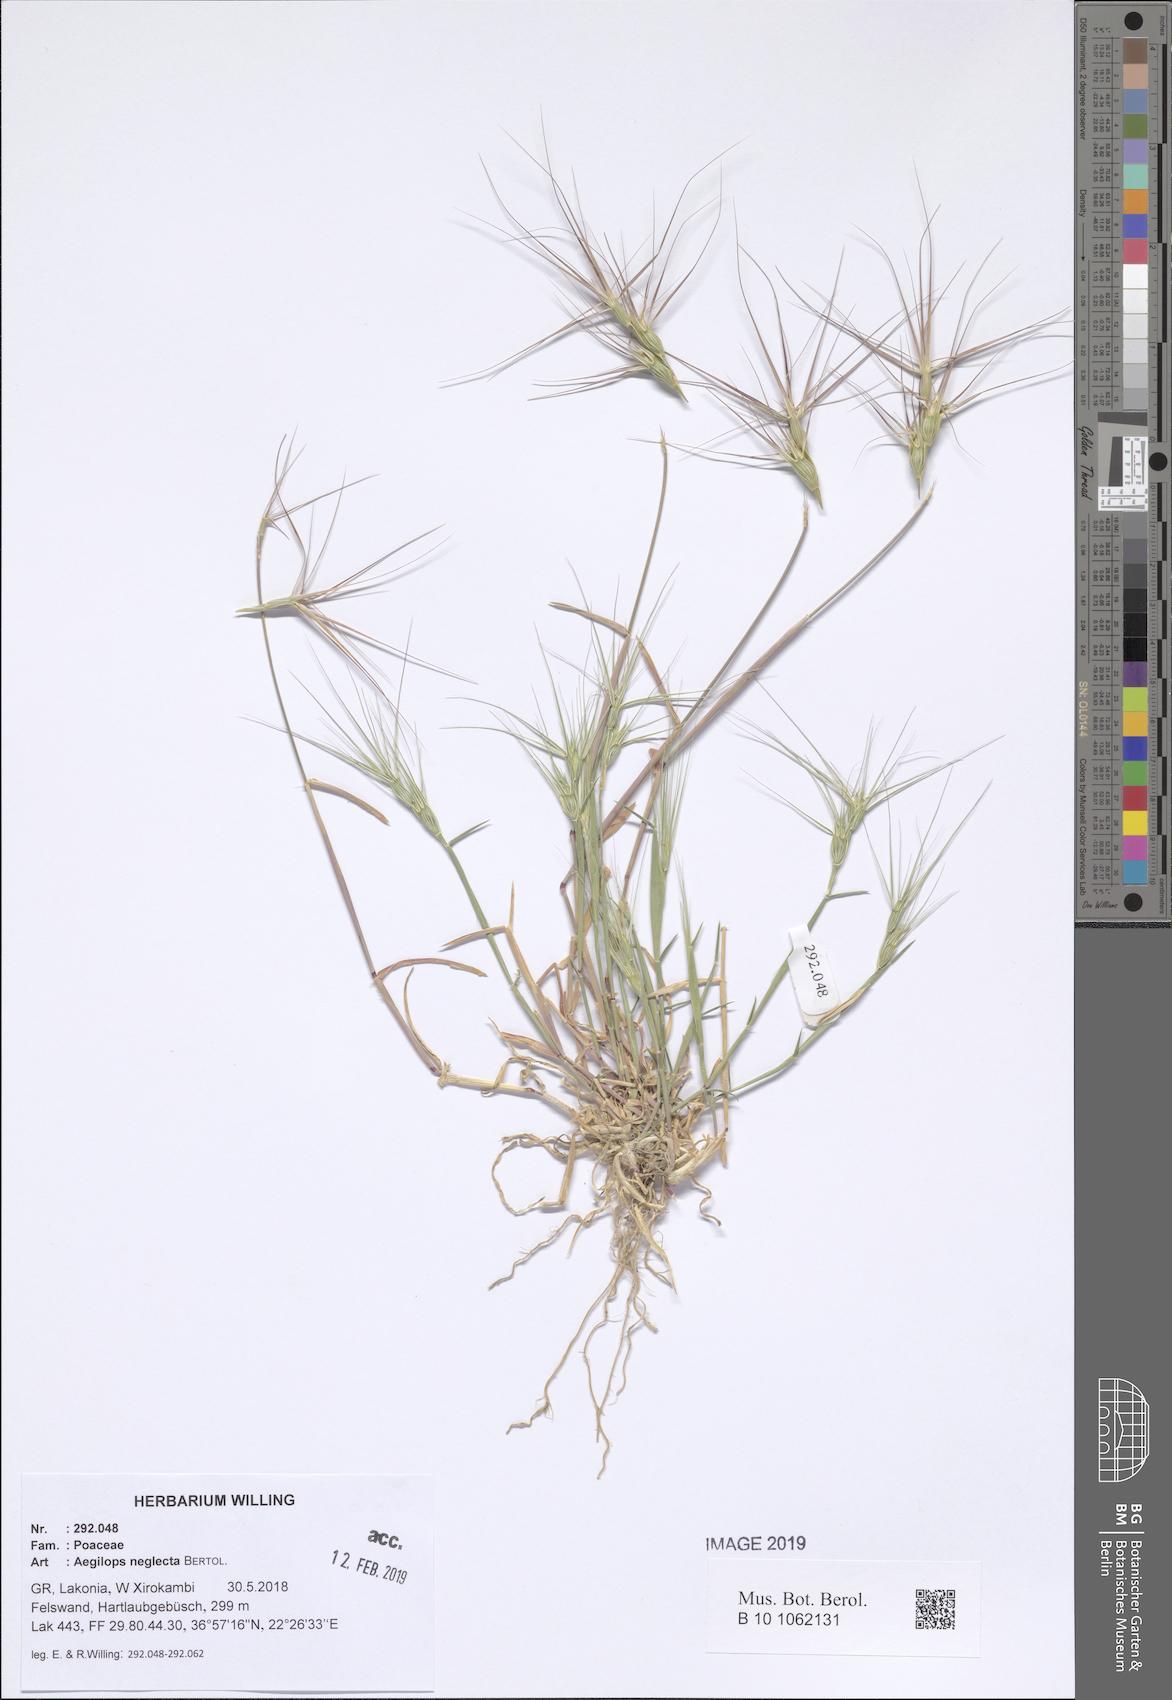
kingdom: Plantae
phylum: Tracheophyta
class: Liliopsida
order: Poales
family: Poaceae
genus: Aegilops
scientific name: Aegilops neglecta
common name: Three-awn goat grass
